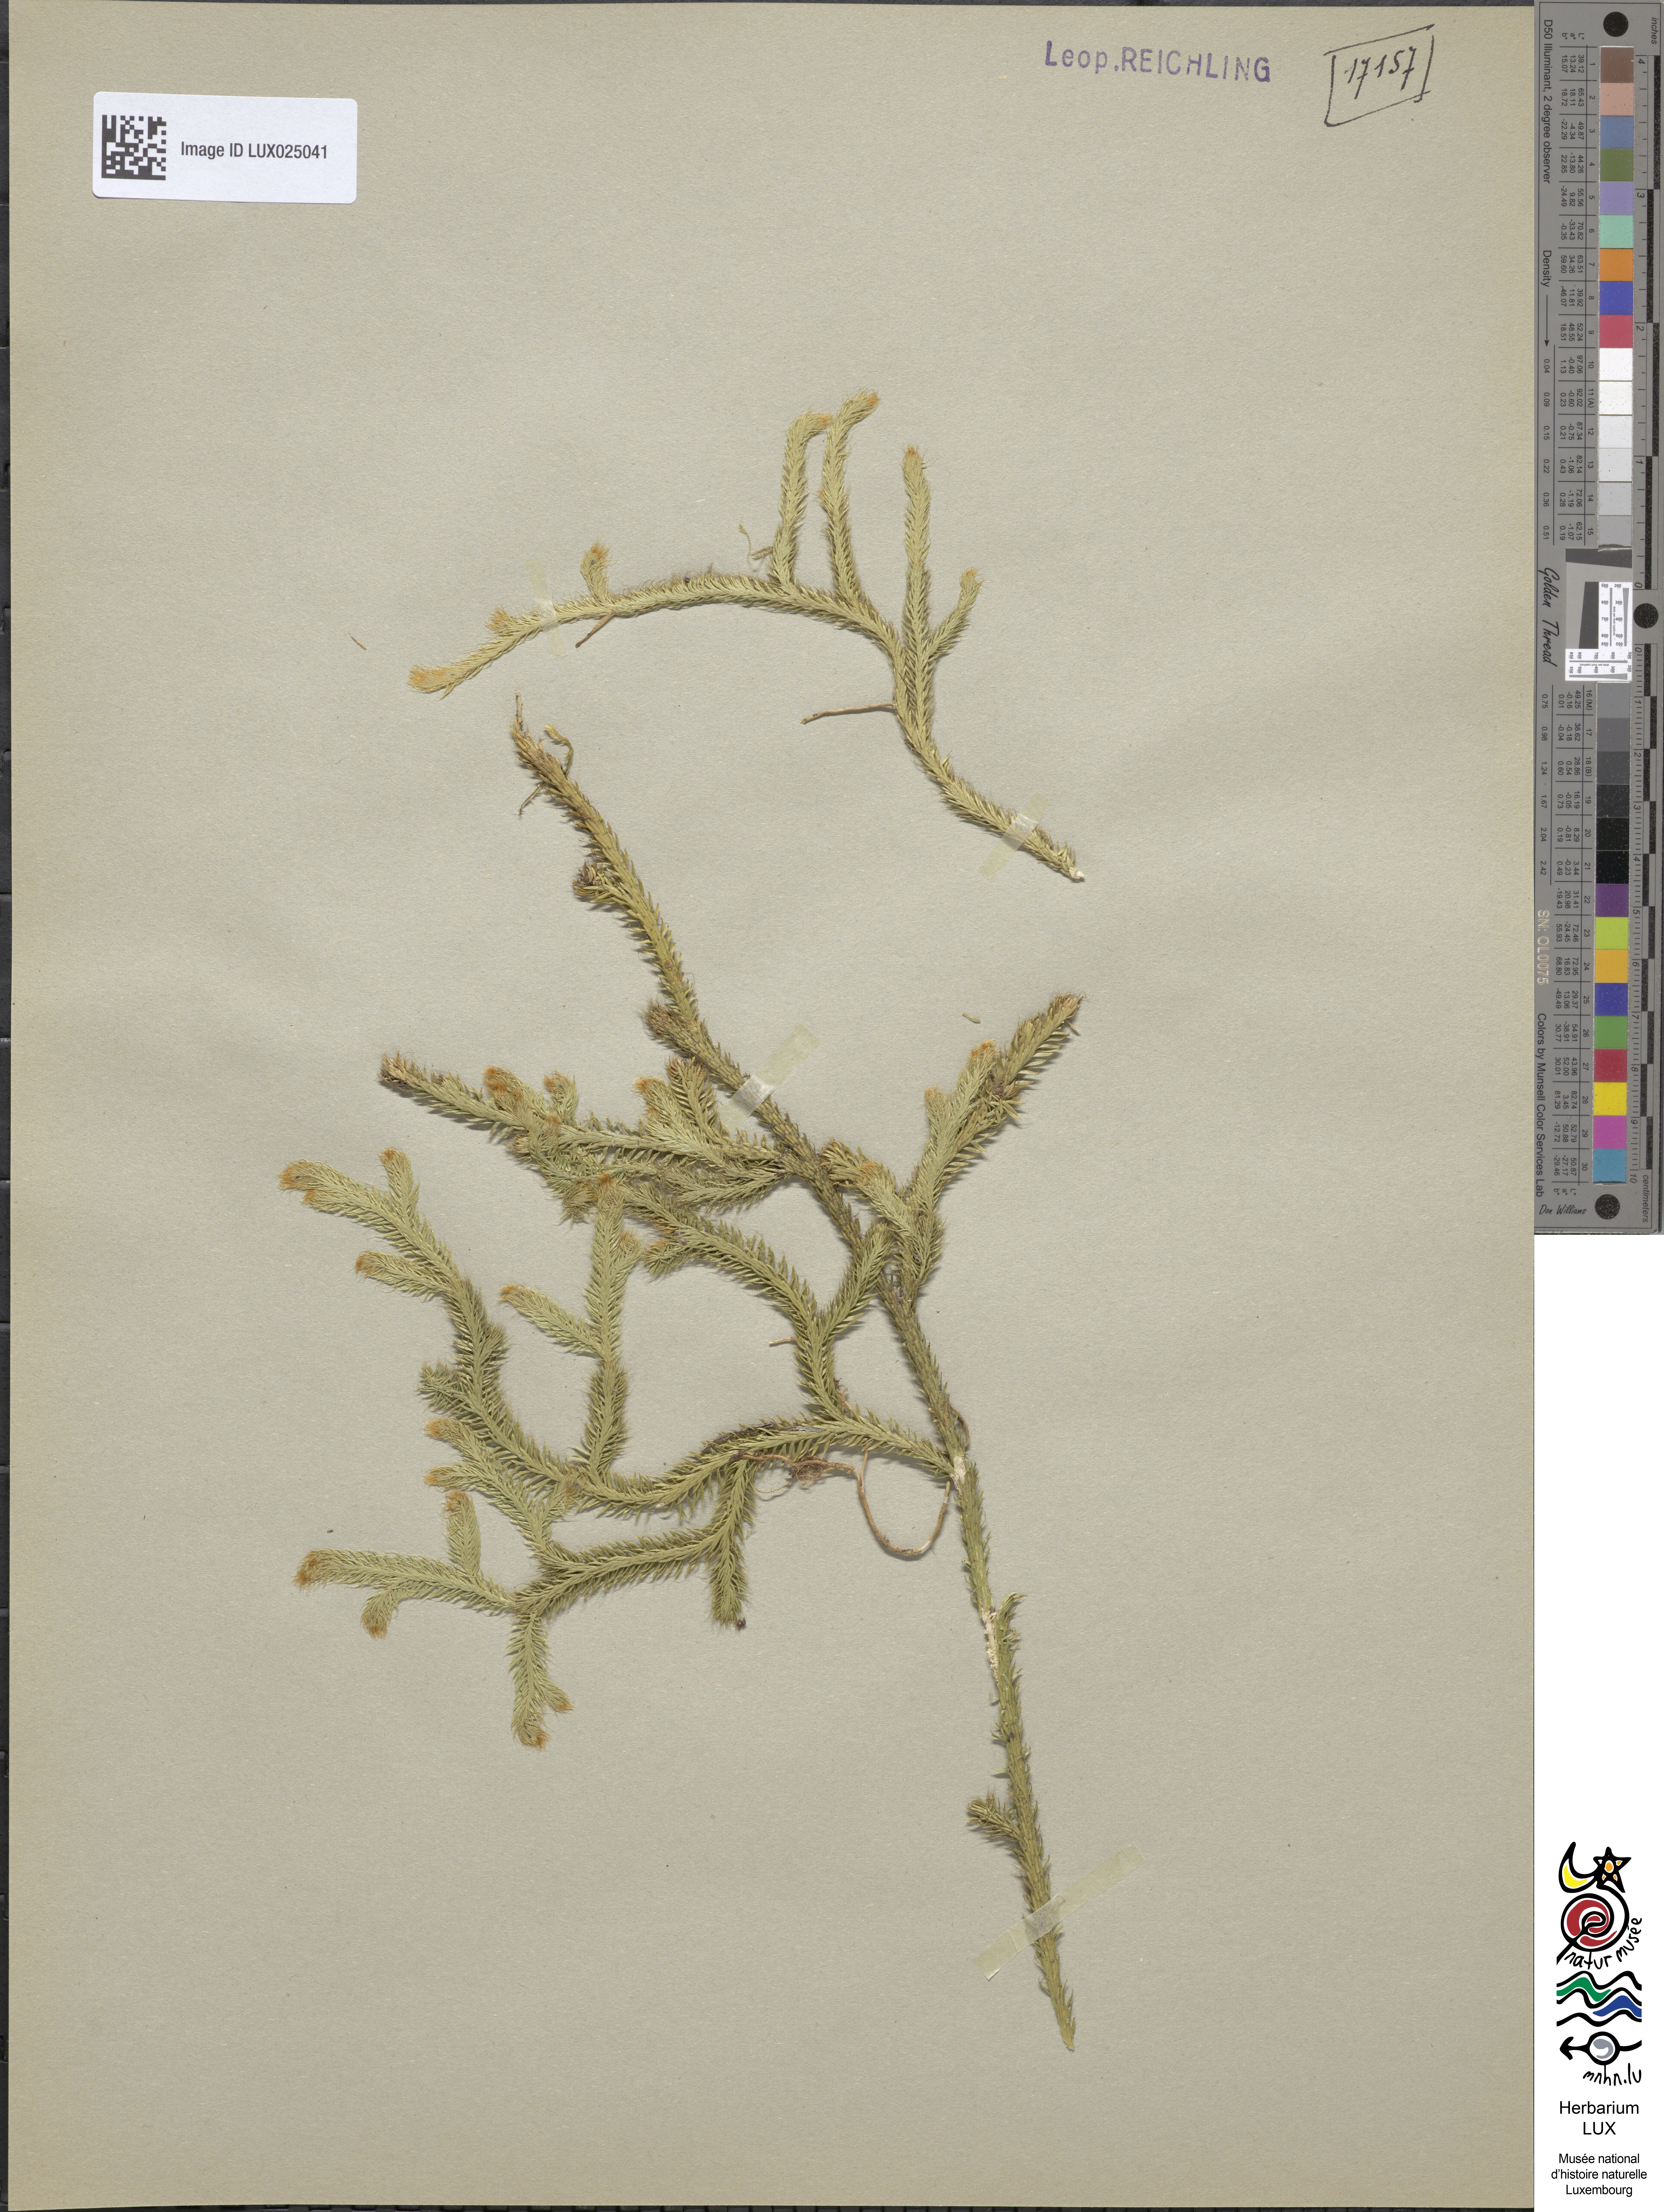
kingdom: Plantae
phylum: Tracheophyta
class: Lycopodiopsida
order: Lycopodiales
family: Lycopodiaceae
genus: Lycopodium
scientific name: Lycopodium clavatum
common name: Stag's-horn clubmoss
